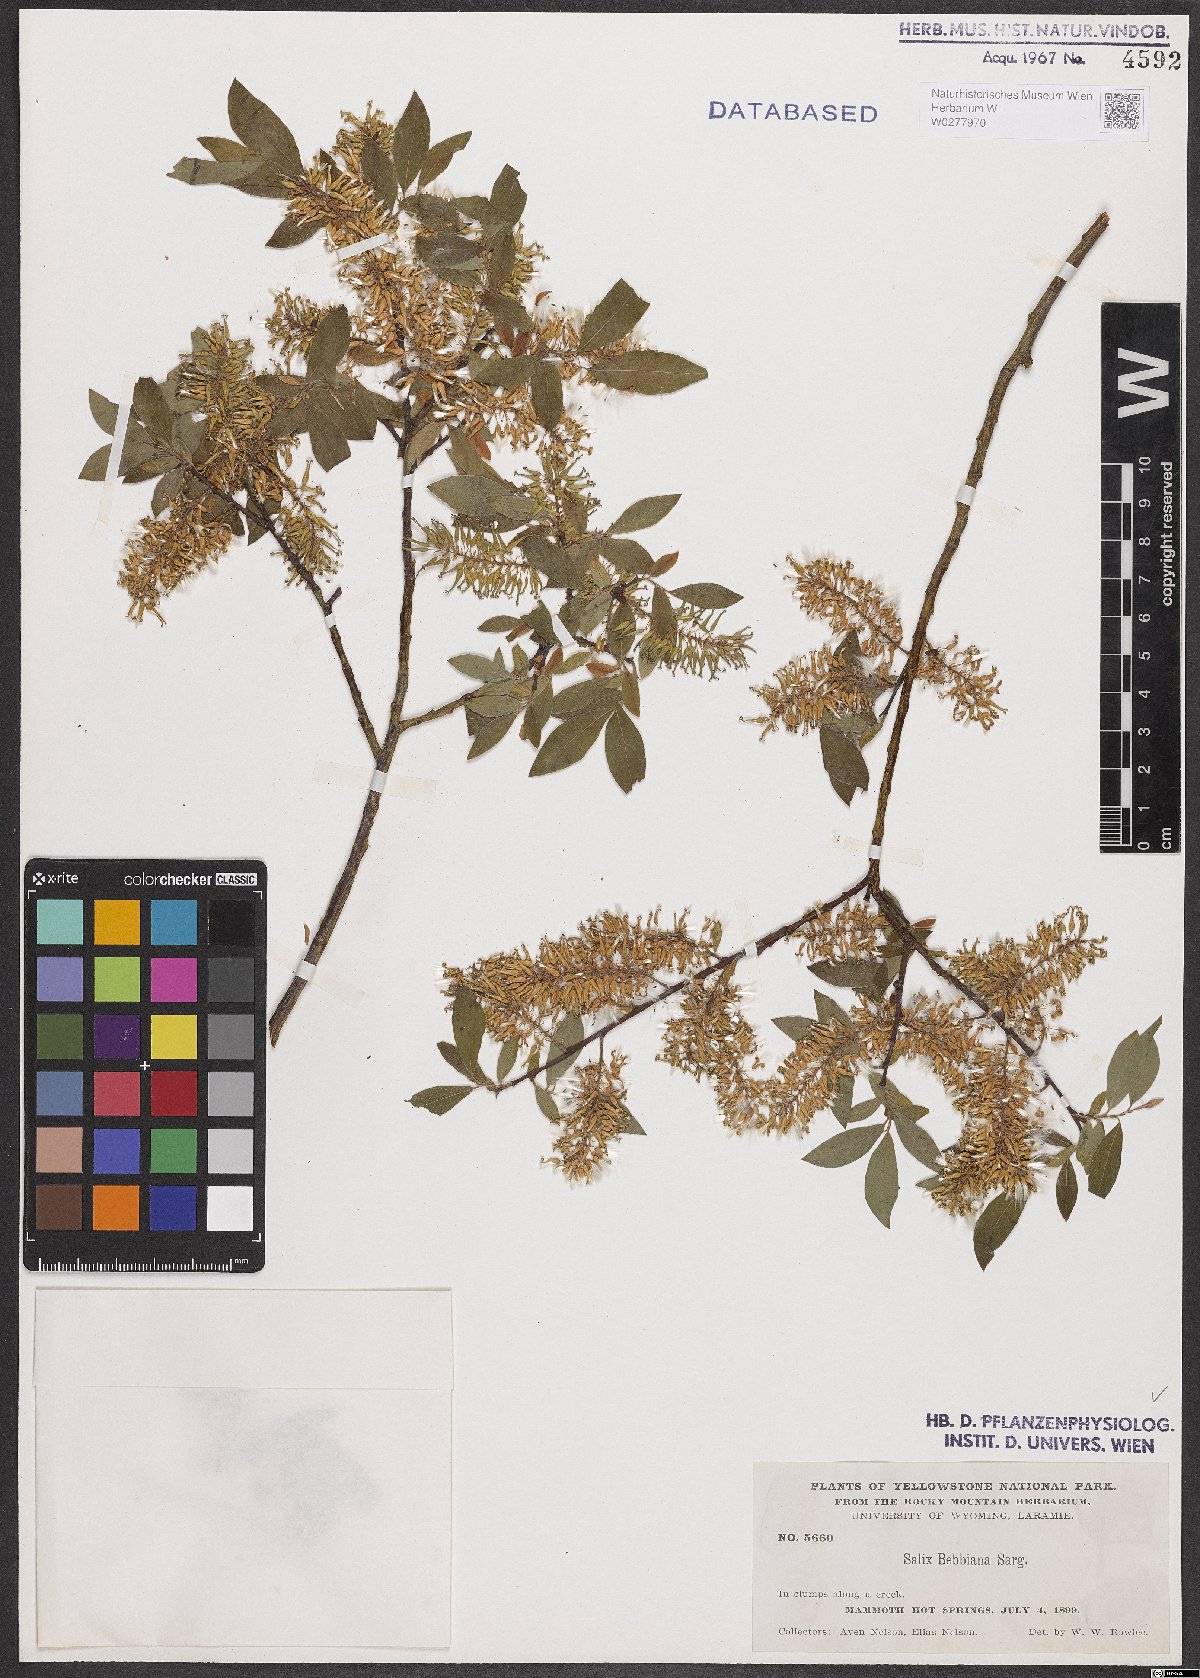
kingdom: Plantae
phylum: Tracheophyta
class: Magnoliopsida
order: Malpighiales
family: Salicaceae
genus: Salix
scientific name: Salix bebbiana
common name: Bebb's willow
